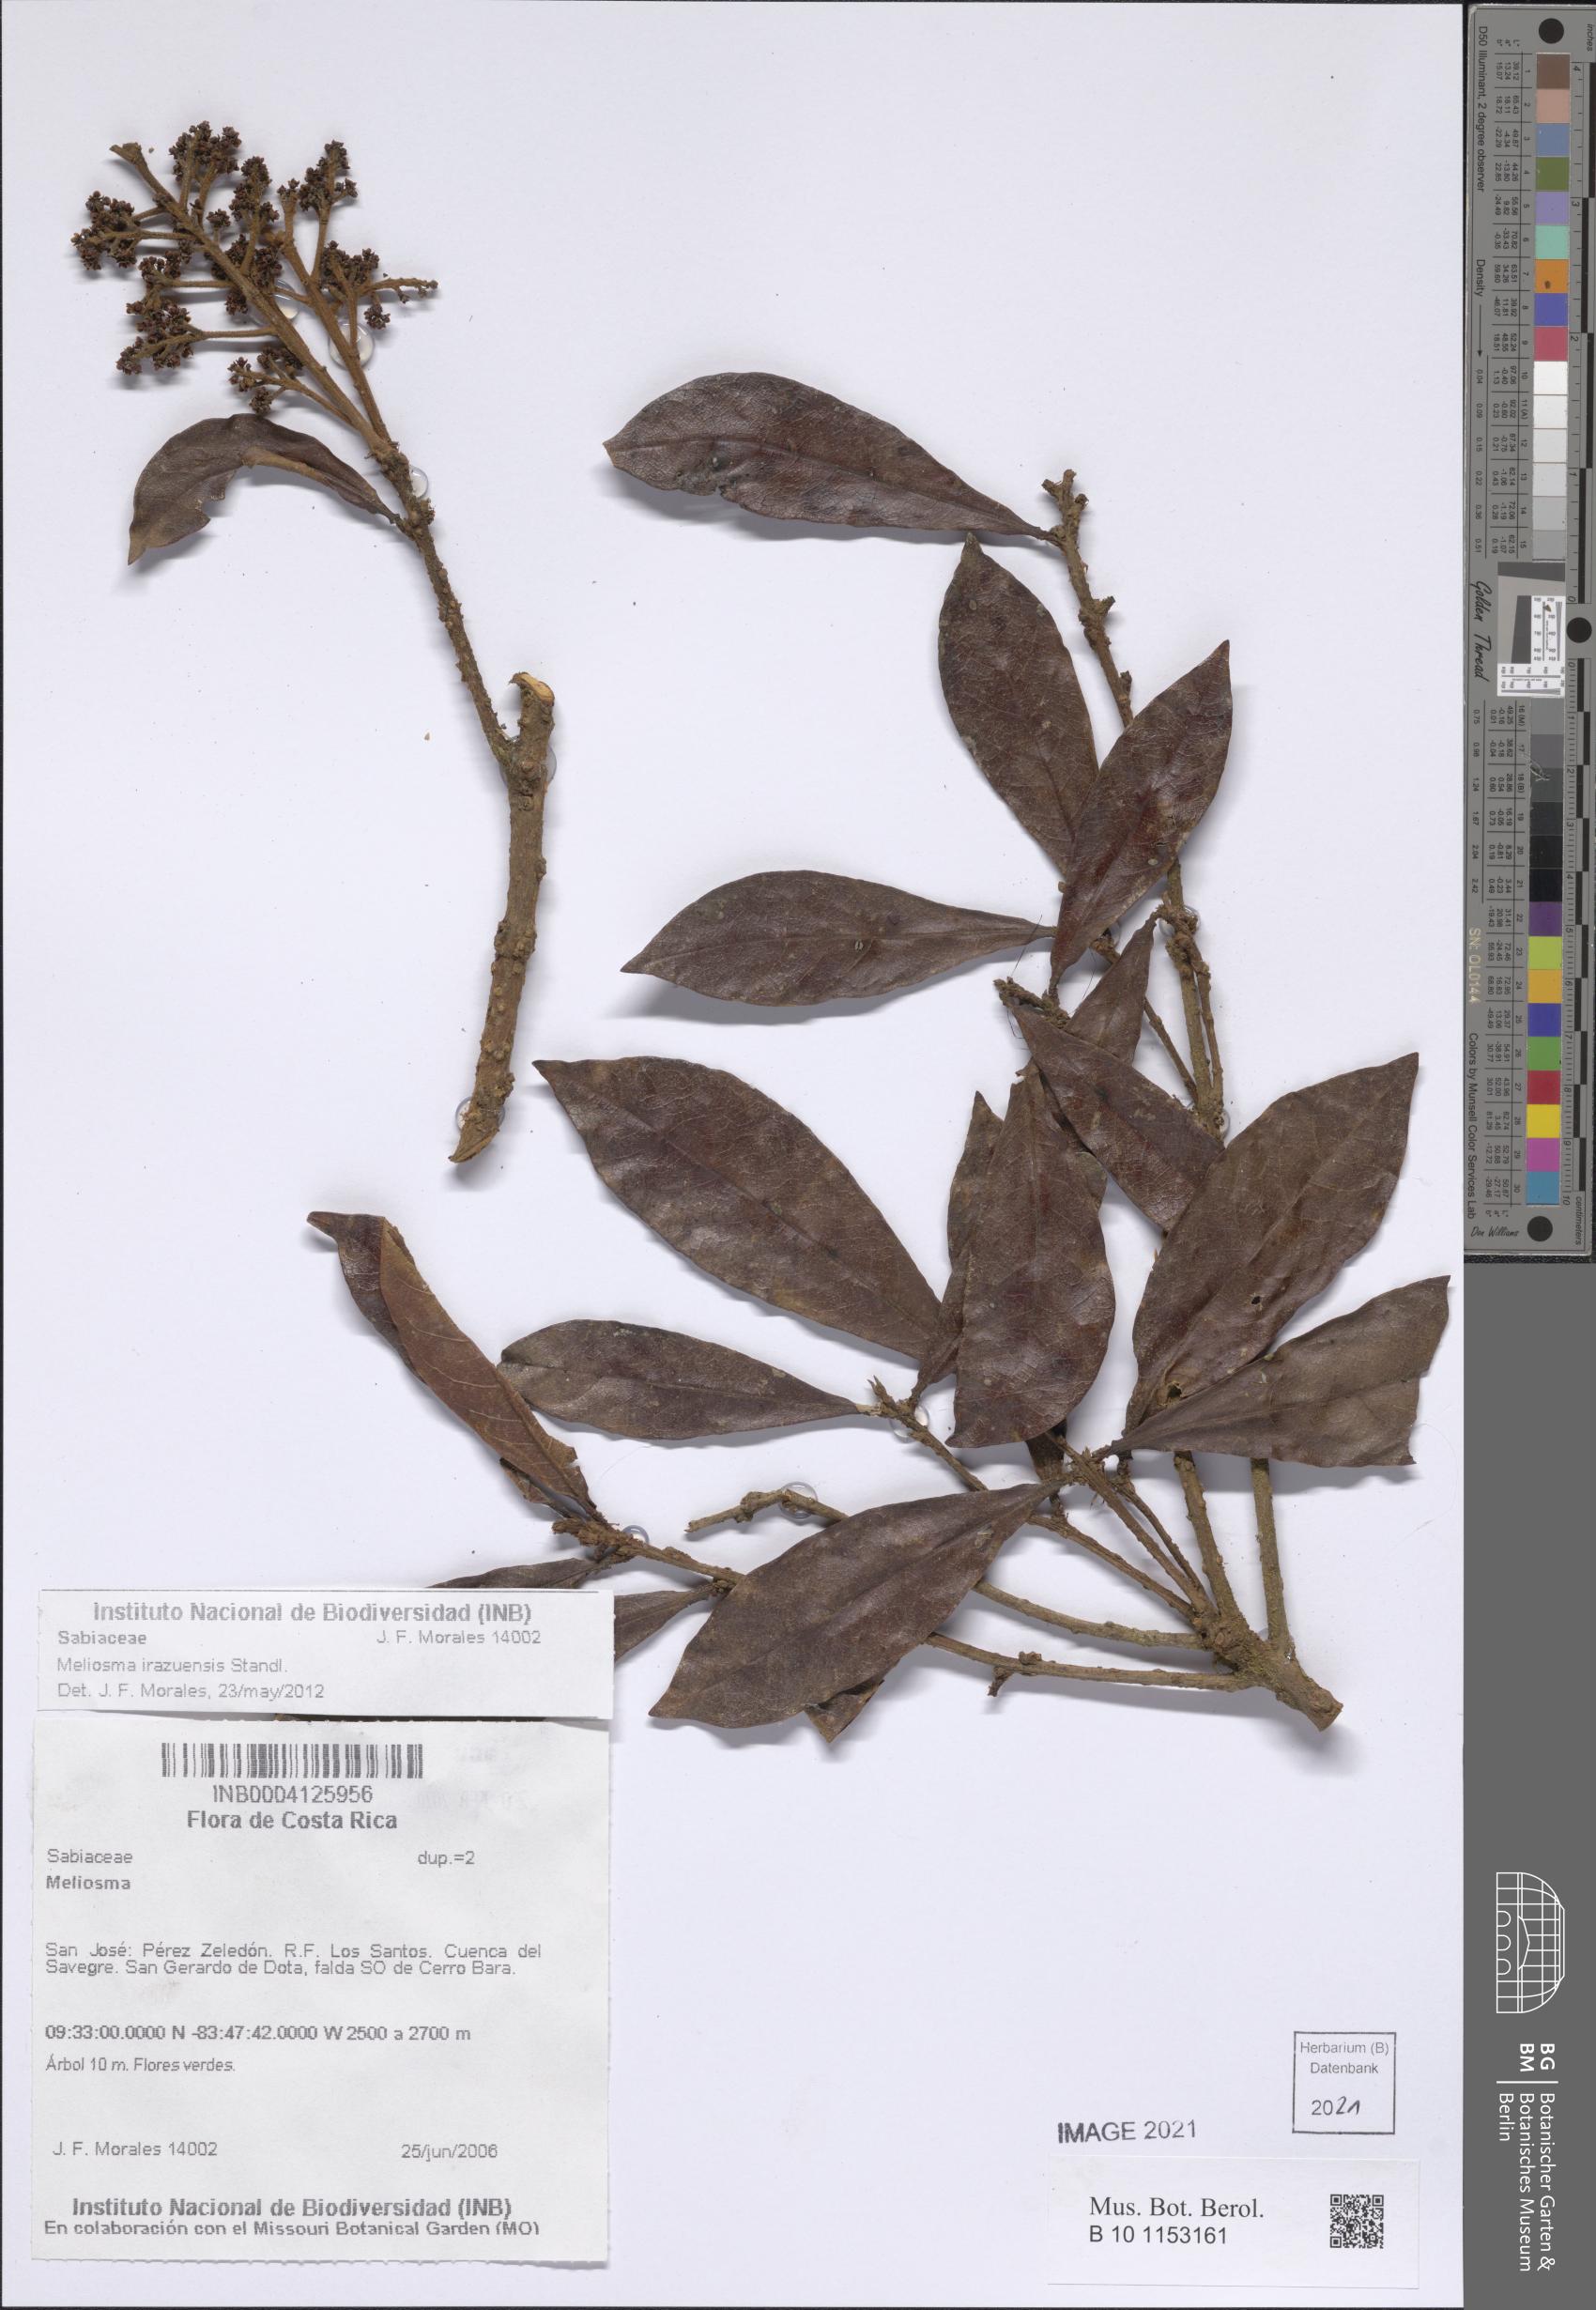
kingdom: Plantae
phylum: Tracheophyta
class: Magnoliopsida
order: Proteales
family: Sabiaceae
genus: Meliosma
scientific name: Meliosma irazuensis
